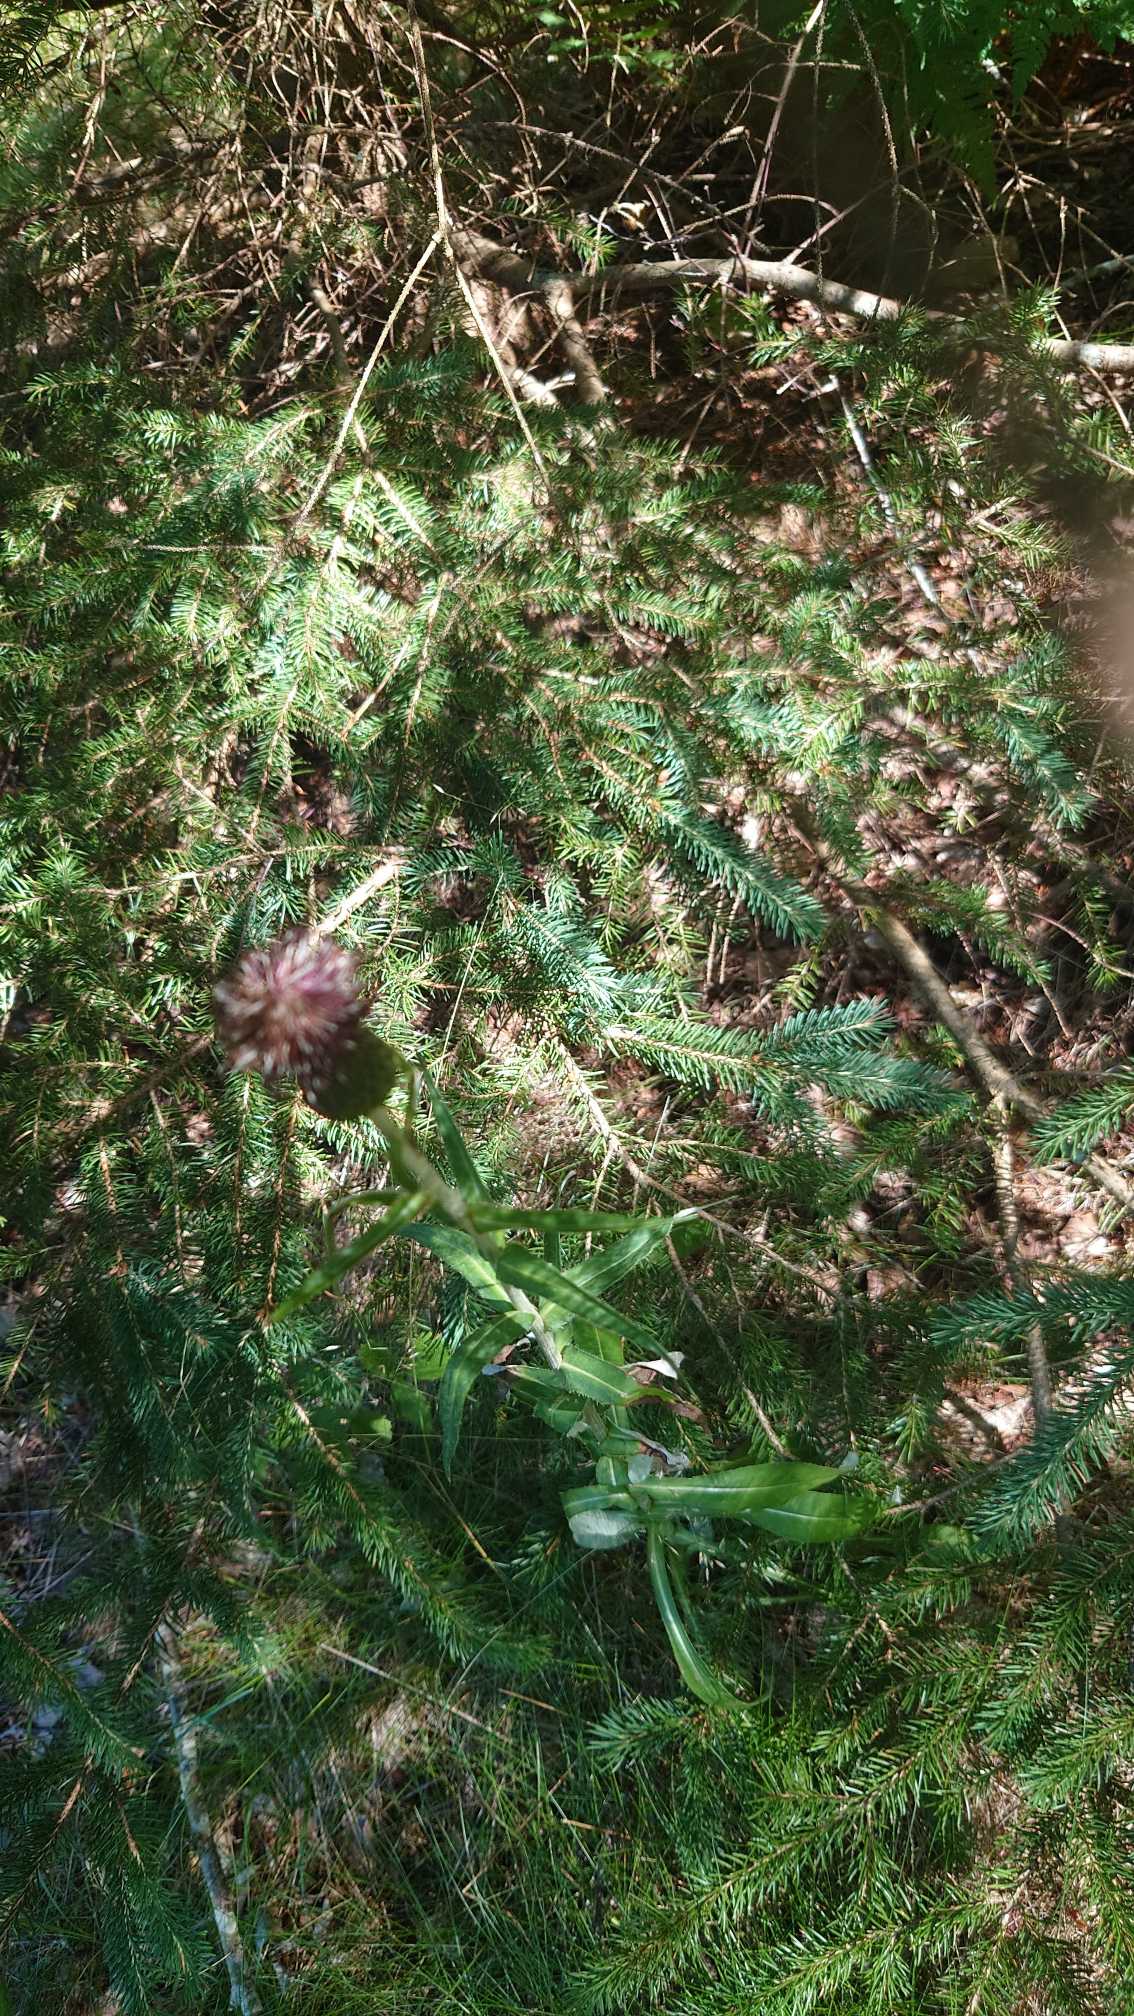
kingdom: Plantae
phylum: Tracheophyta
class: Magnoliopsida
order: Asterales
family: Asteraceae
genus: Cirsium
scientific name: Cirsium heterophyllum
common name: Forskelligbladet tidsel
